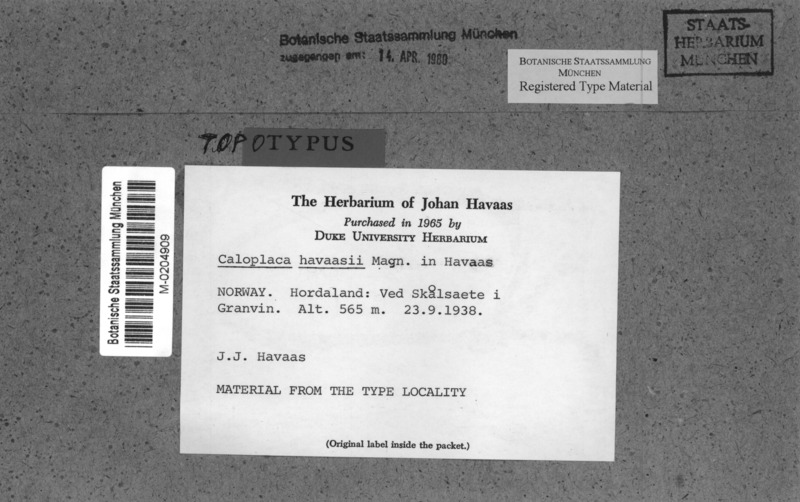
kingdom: Fungi
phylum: Ascomycota
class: Lecanoromycetes
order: Teloschistales
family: Teloschistaceae
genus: Flavoplaca
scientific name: Flavoplaca havaasii
